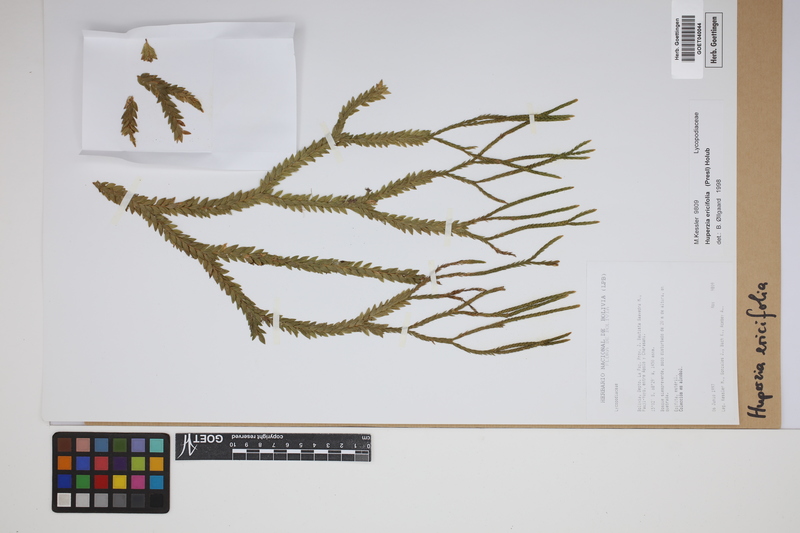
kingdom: Plantae
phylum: Tracheophyta
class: Lycopodiopsida
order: Lycopodiales
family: Lycopodiaceae
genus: Phlegmariurus
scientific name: Phlegmariurus ericifolius
